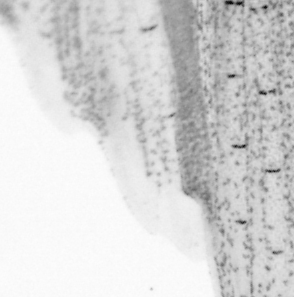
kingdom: Animalia
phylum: Chordata
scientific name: Chordata
